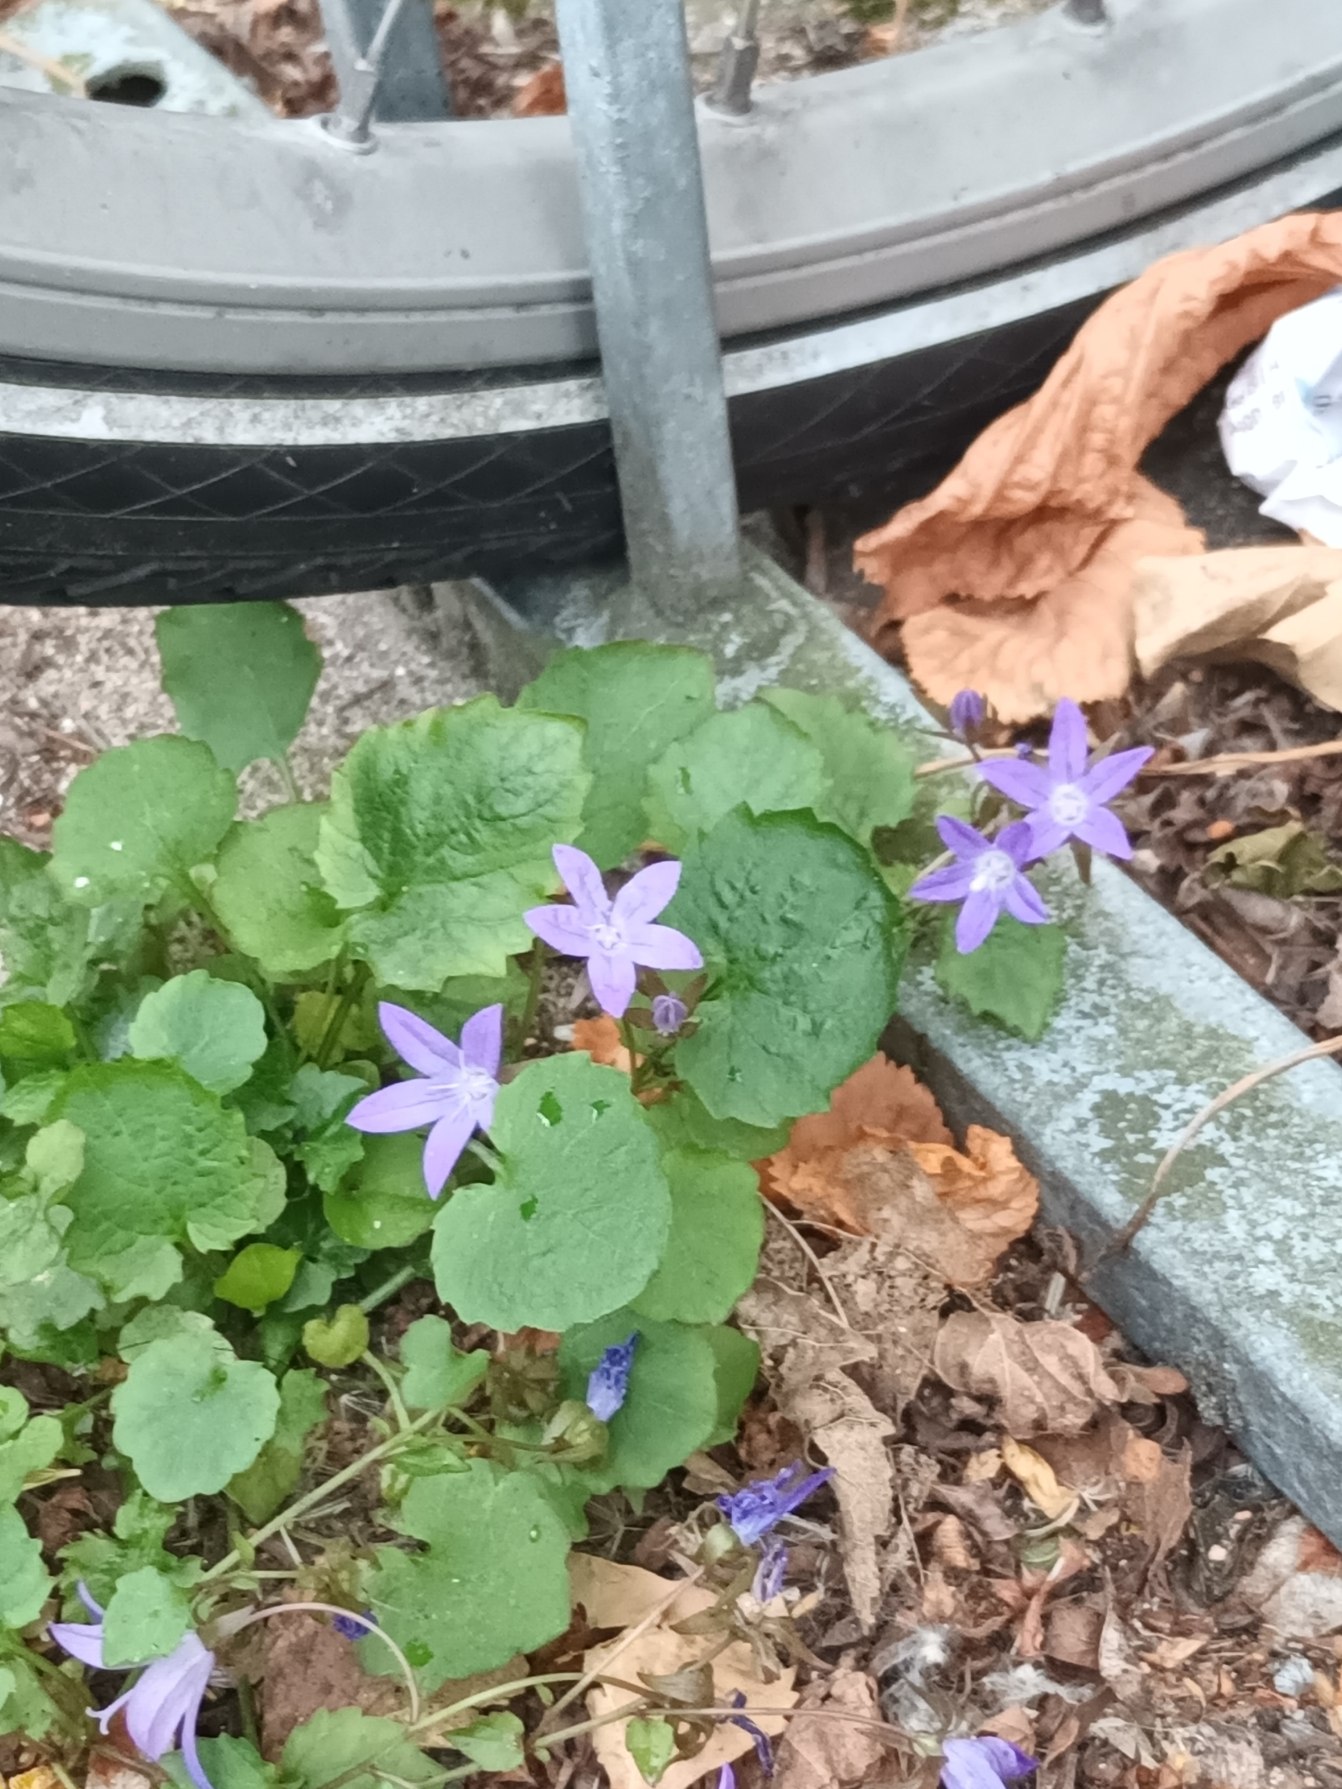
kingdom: Plantae
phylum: Tracheophyta
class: Magnoliopsida
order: Asterales
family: Campanulaceae
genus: Campanula
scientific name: Campanula poscharskyana
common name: Stjerne-klokke
